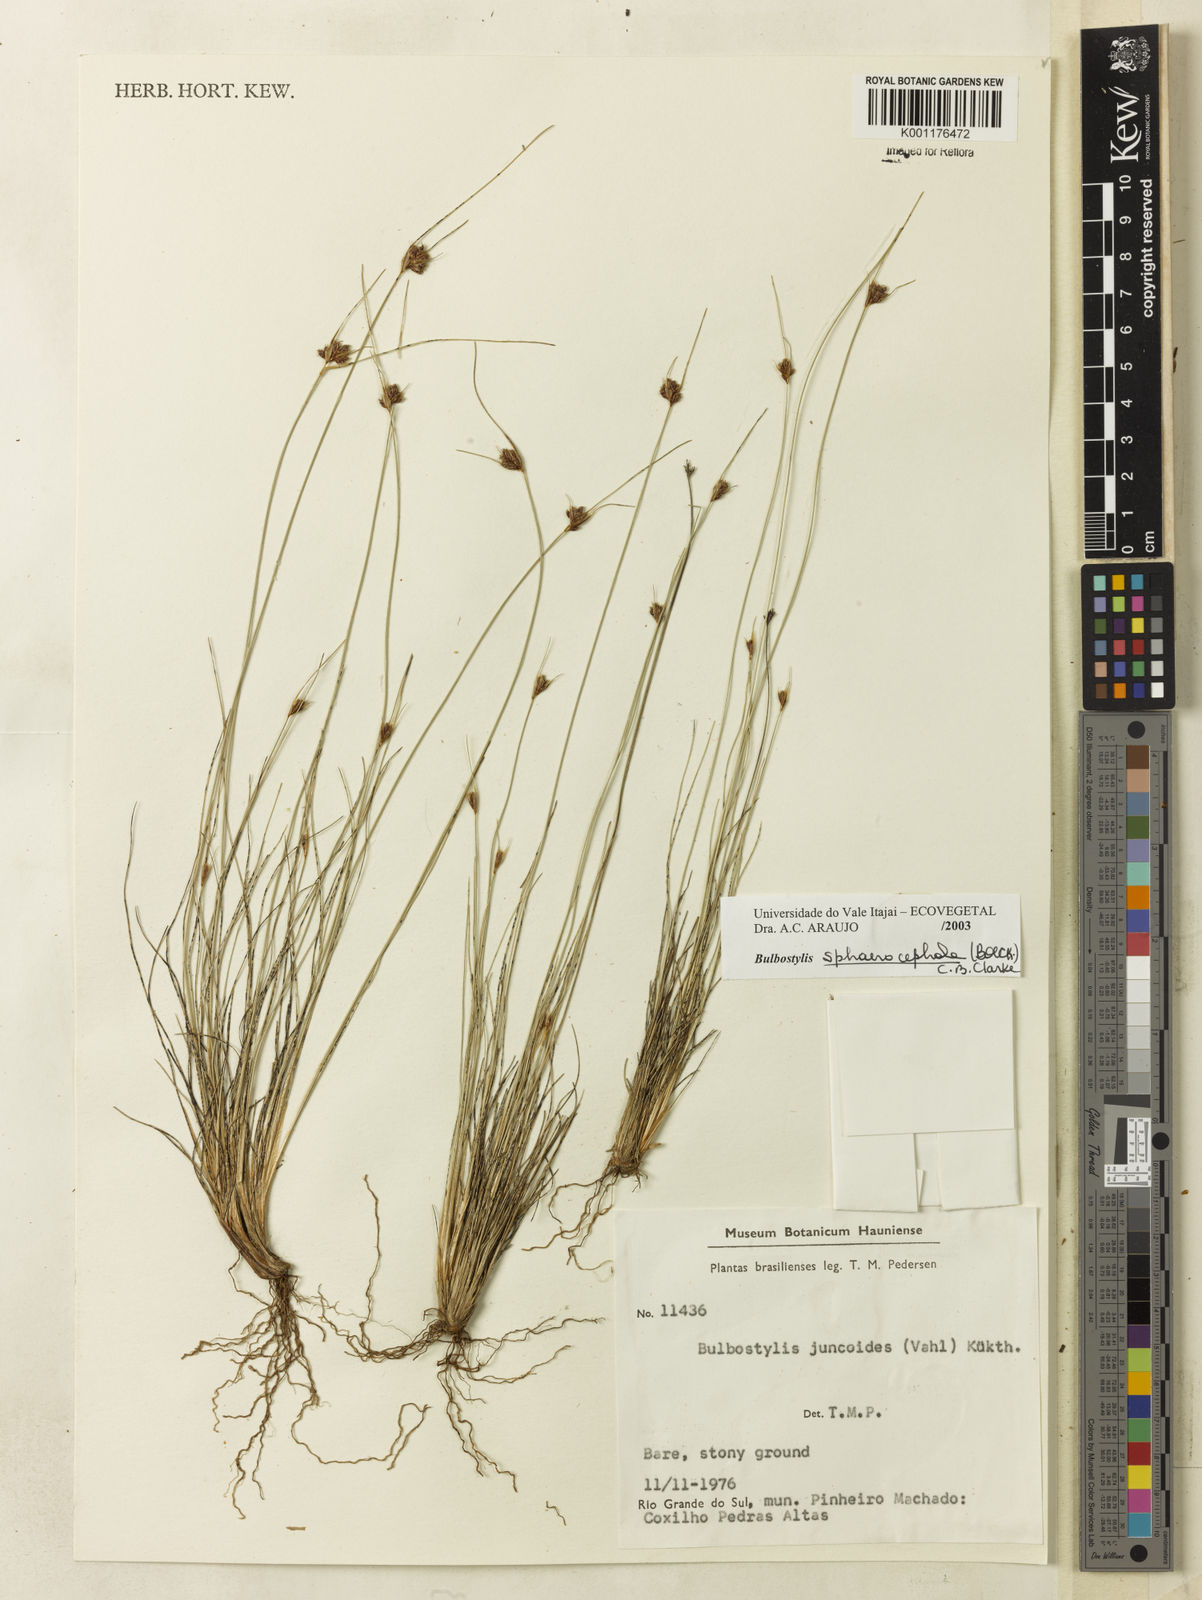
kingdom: Plantae
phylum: Tracheophyta
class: Liliopsida
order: Poales
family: Cyperaceae
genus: Bulbostylis
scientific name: Bulbostylis
